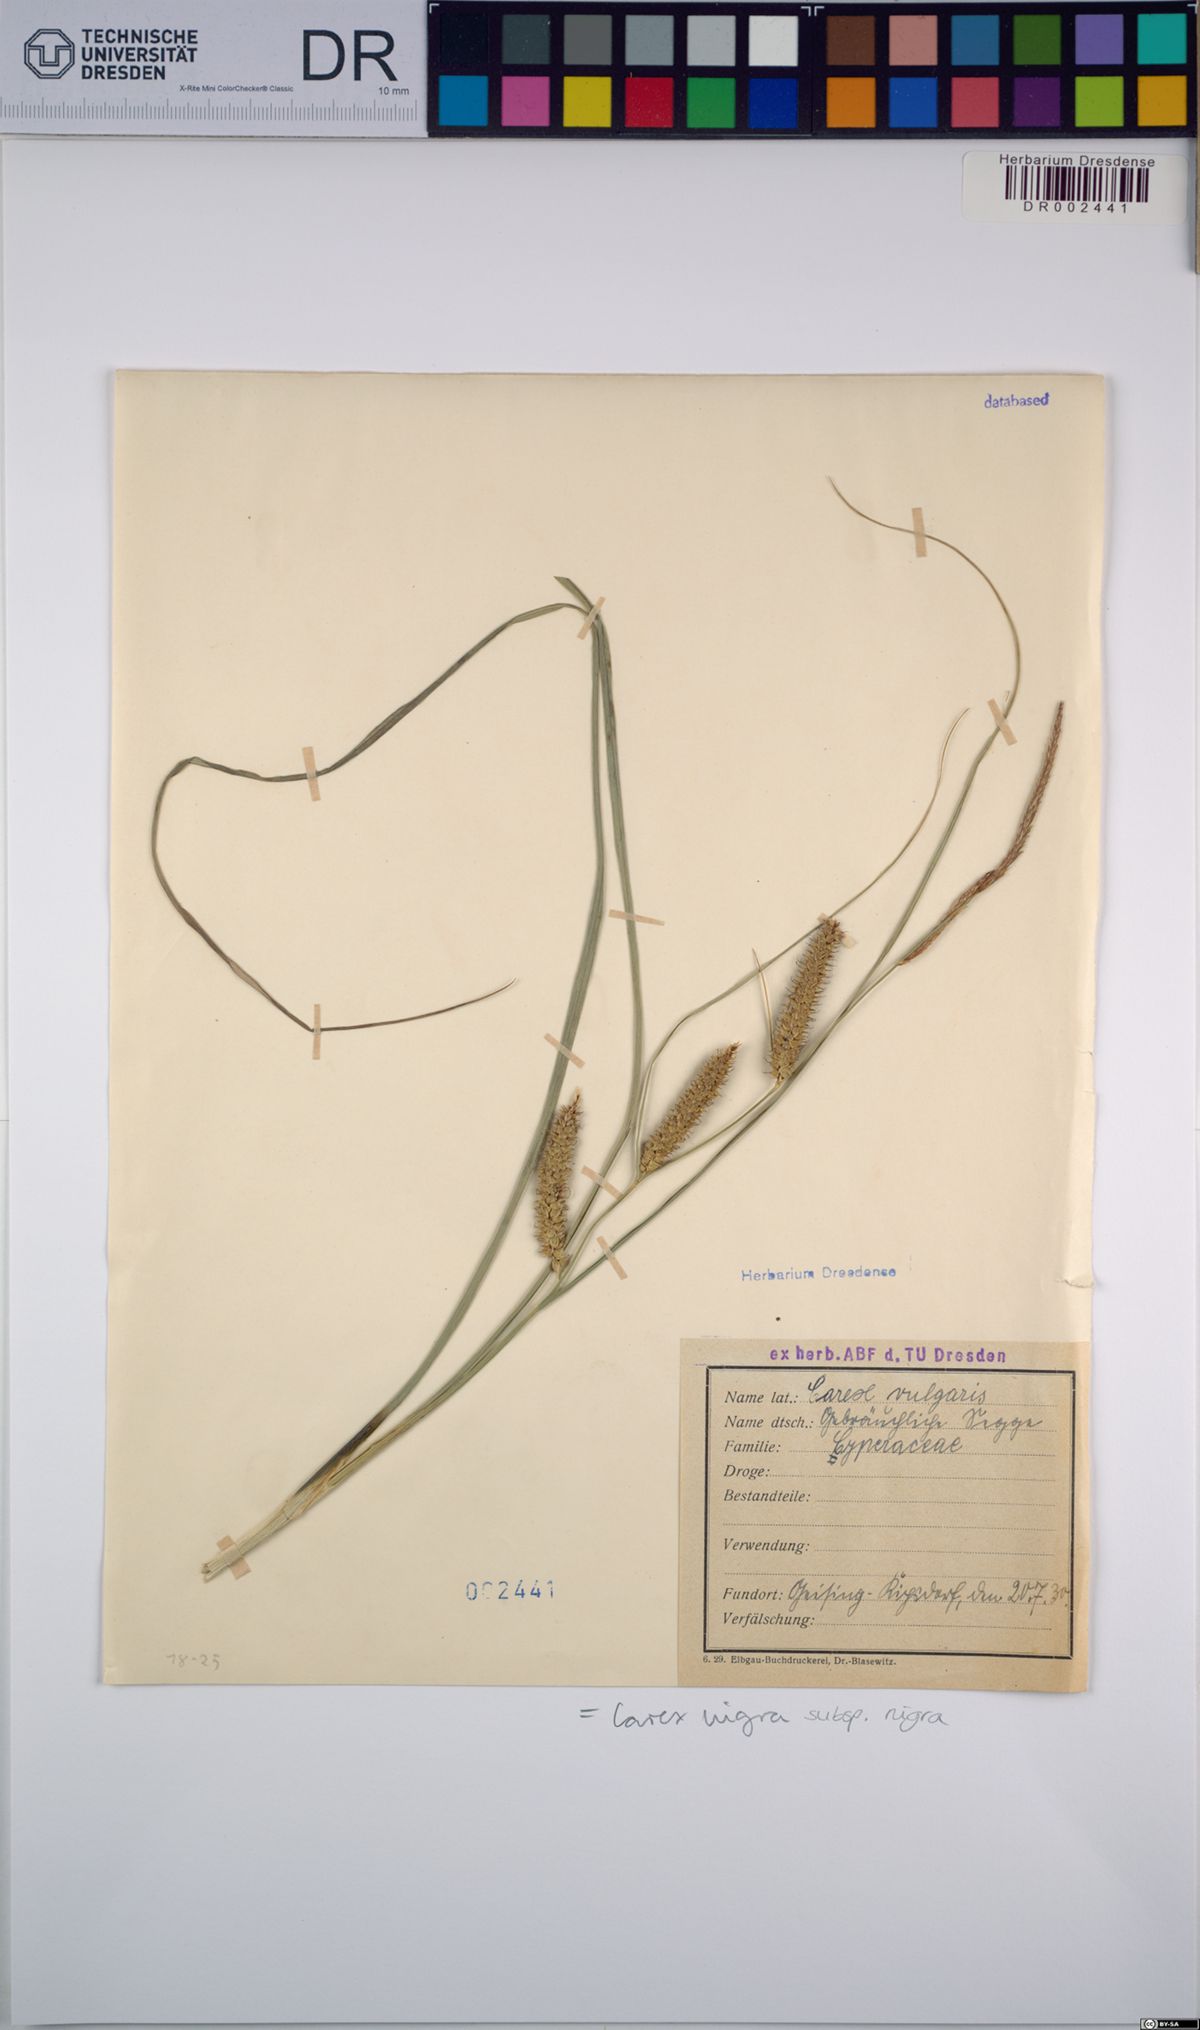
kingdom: Plantae
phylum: Tracheophyta
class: Liliopsida
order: Poales
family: Cyperaceae
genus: Carex
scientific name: Carex nigra
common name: Common sedge
